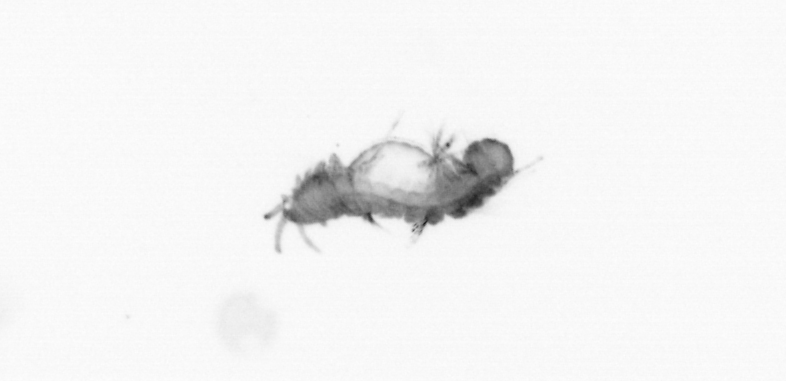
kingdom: Animalia
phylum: Annelida
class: Polychaeta
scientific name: Polychaeta
